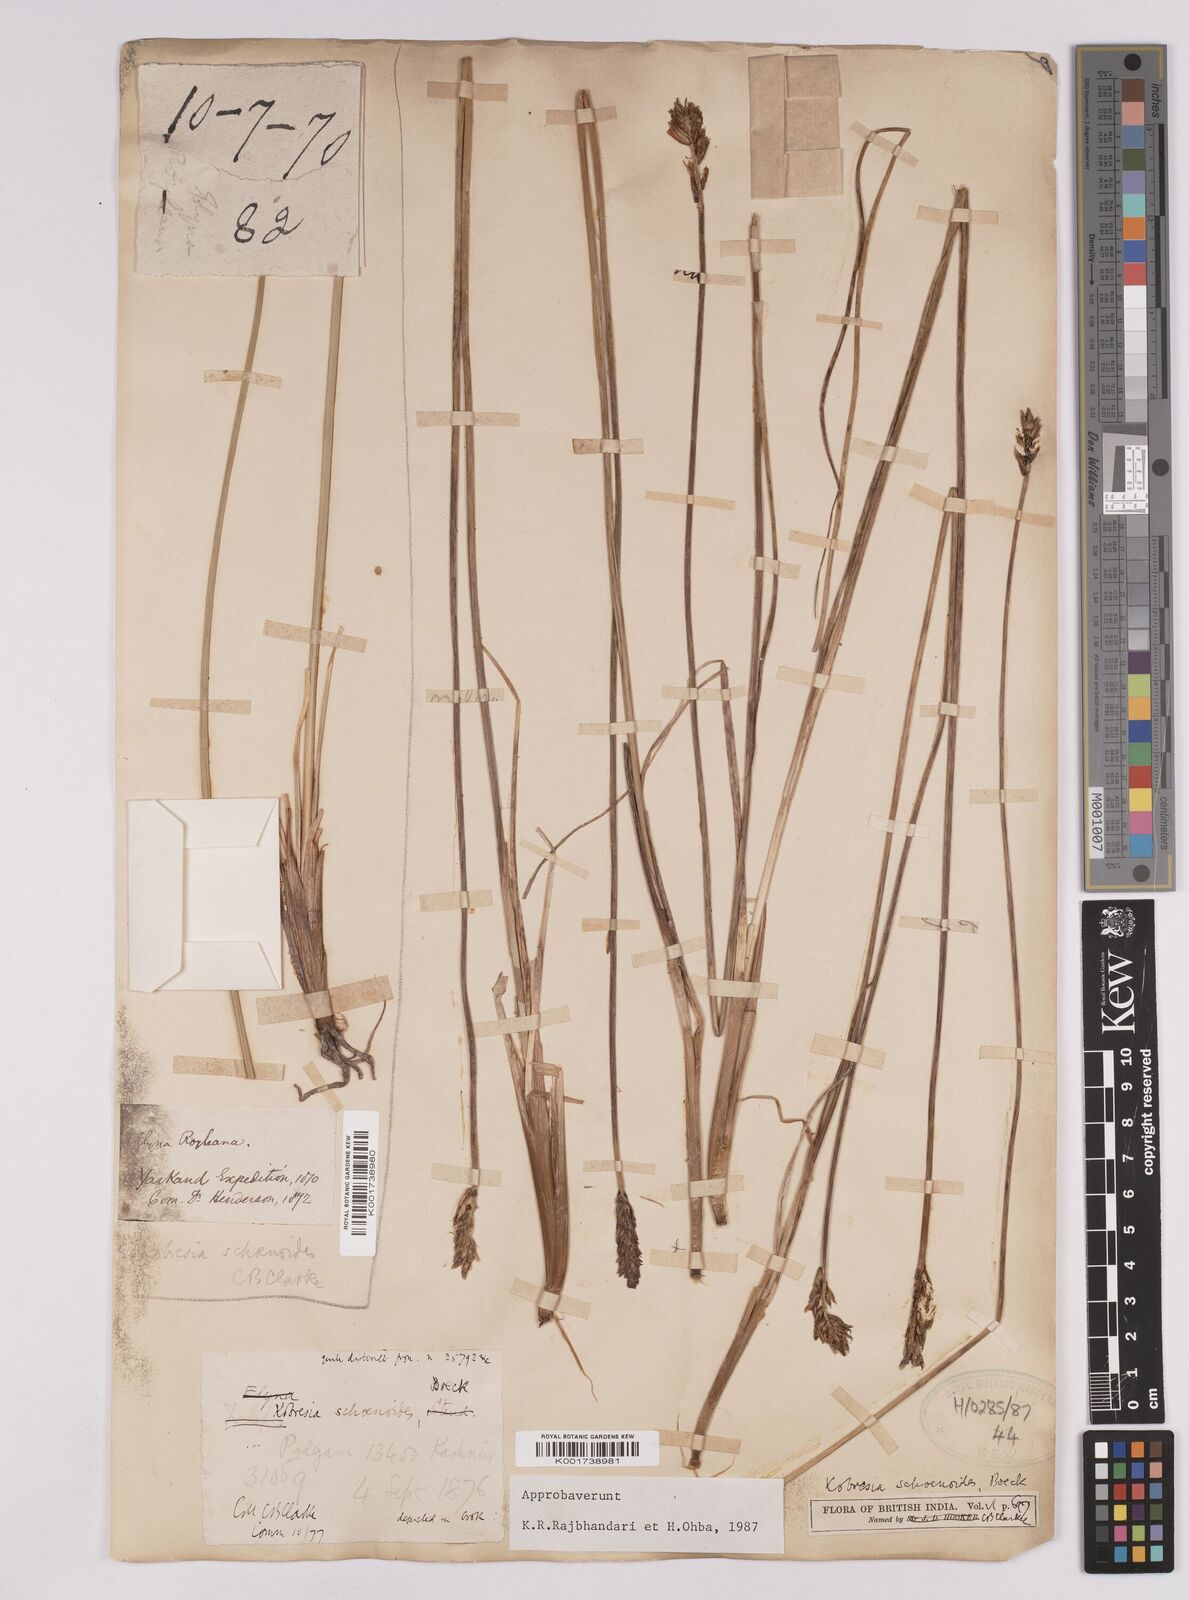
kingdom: Plantae
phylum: Tracheophyta
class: Liliopsida
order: Poales
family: Cyperaceae
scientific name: Cyperaceae
